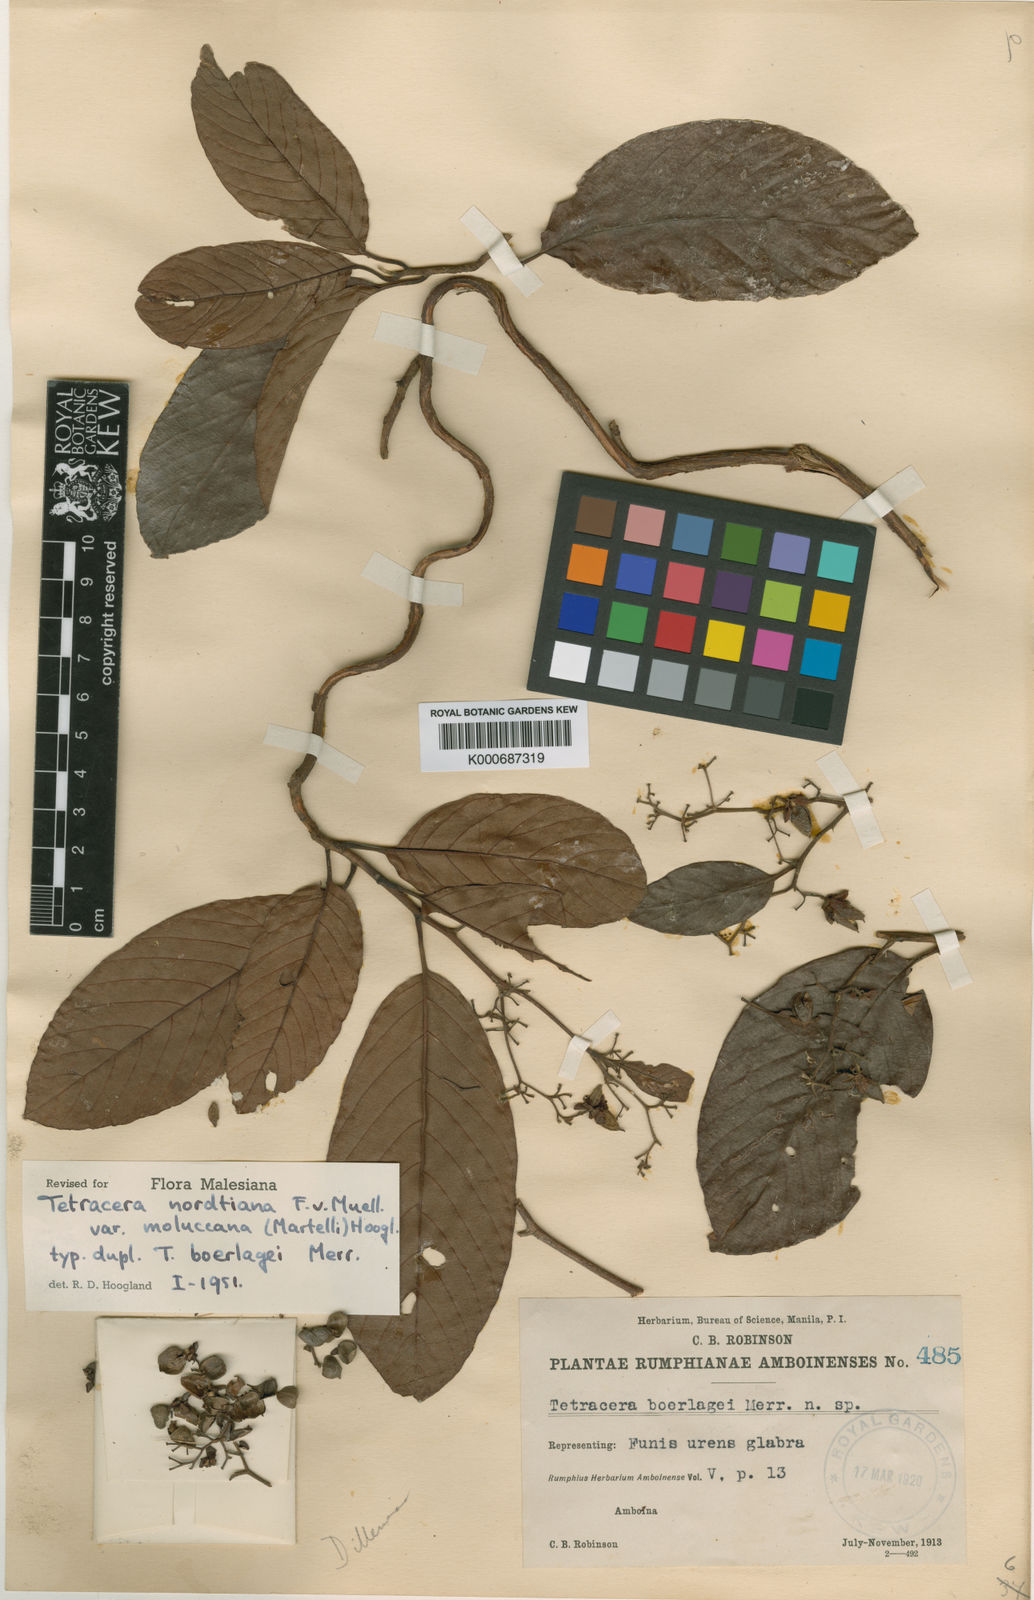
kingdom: Plantae
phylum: Tracheophyta
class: Magnoliopsida
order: Dilleniales
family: Dilleniaceae
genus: Tetracera
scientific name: Tetracera nordtiana
